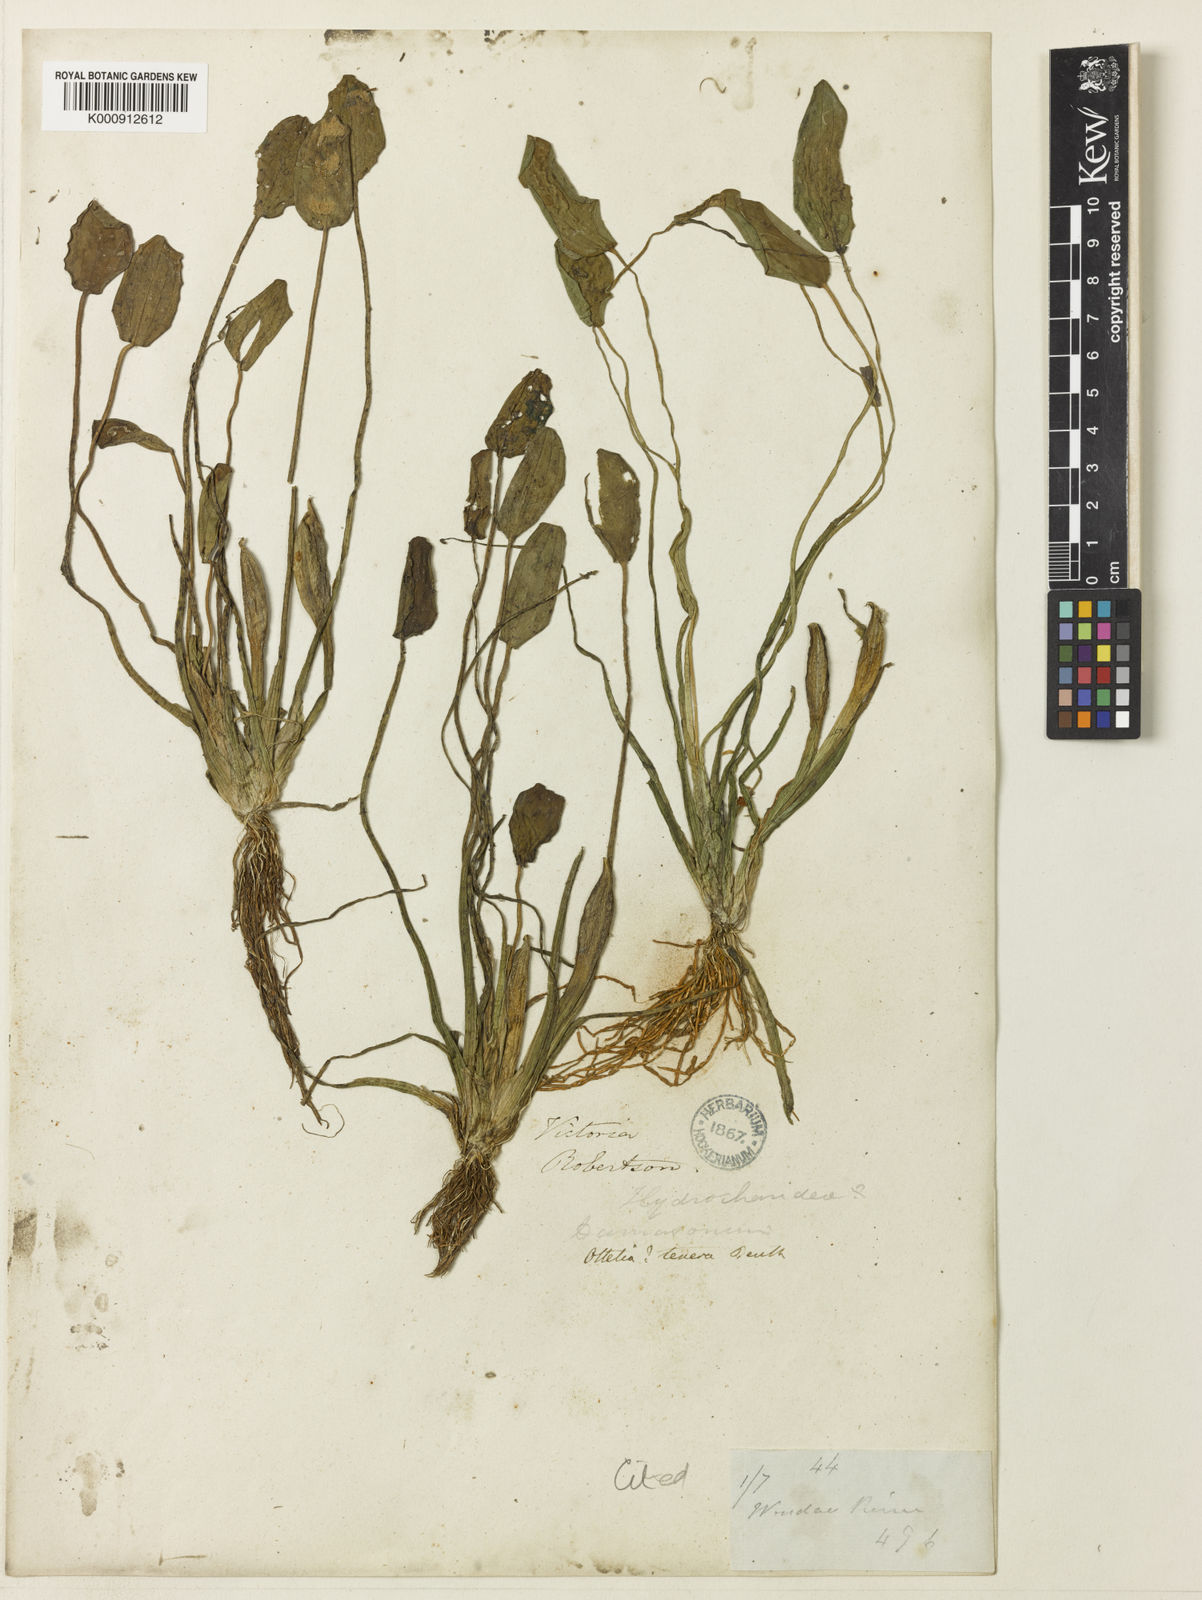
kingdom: Plantae
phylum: Tracheophyta
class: Liliopsida
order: Alismatales
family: Hydrocharitaceae
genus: Ottelia
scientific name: Ottelia ovalifolia
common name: Swamp-lily
